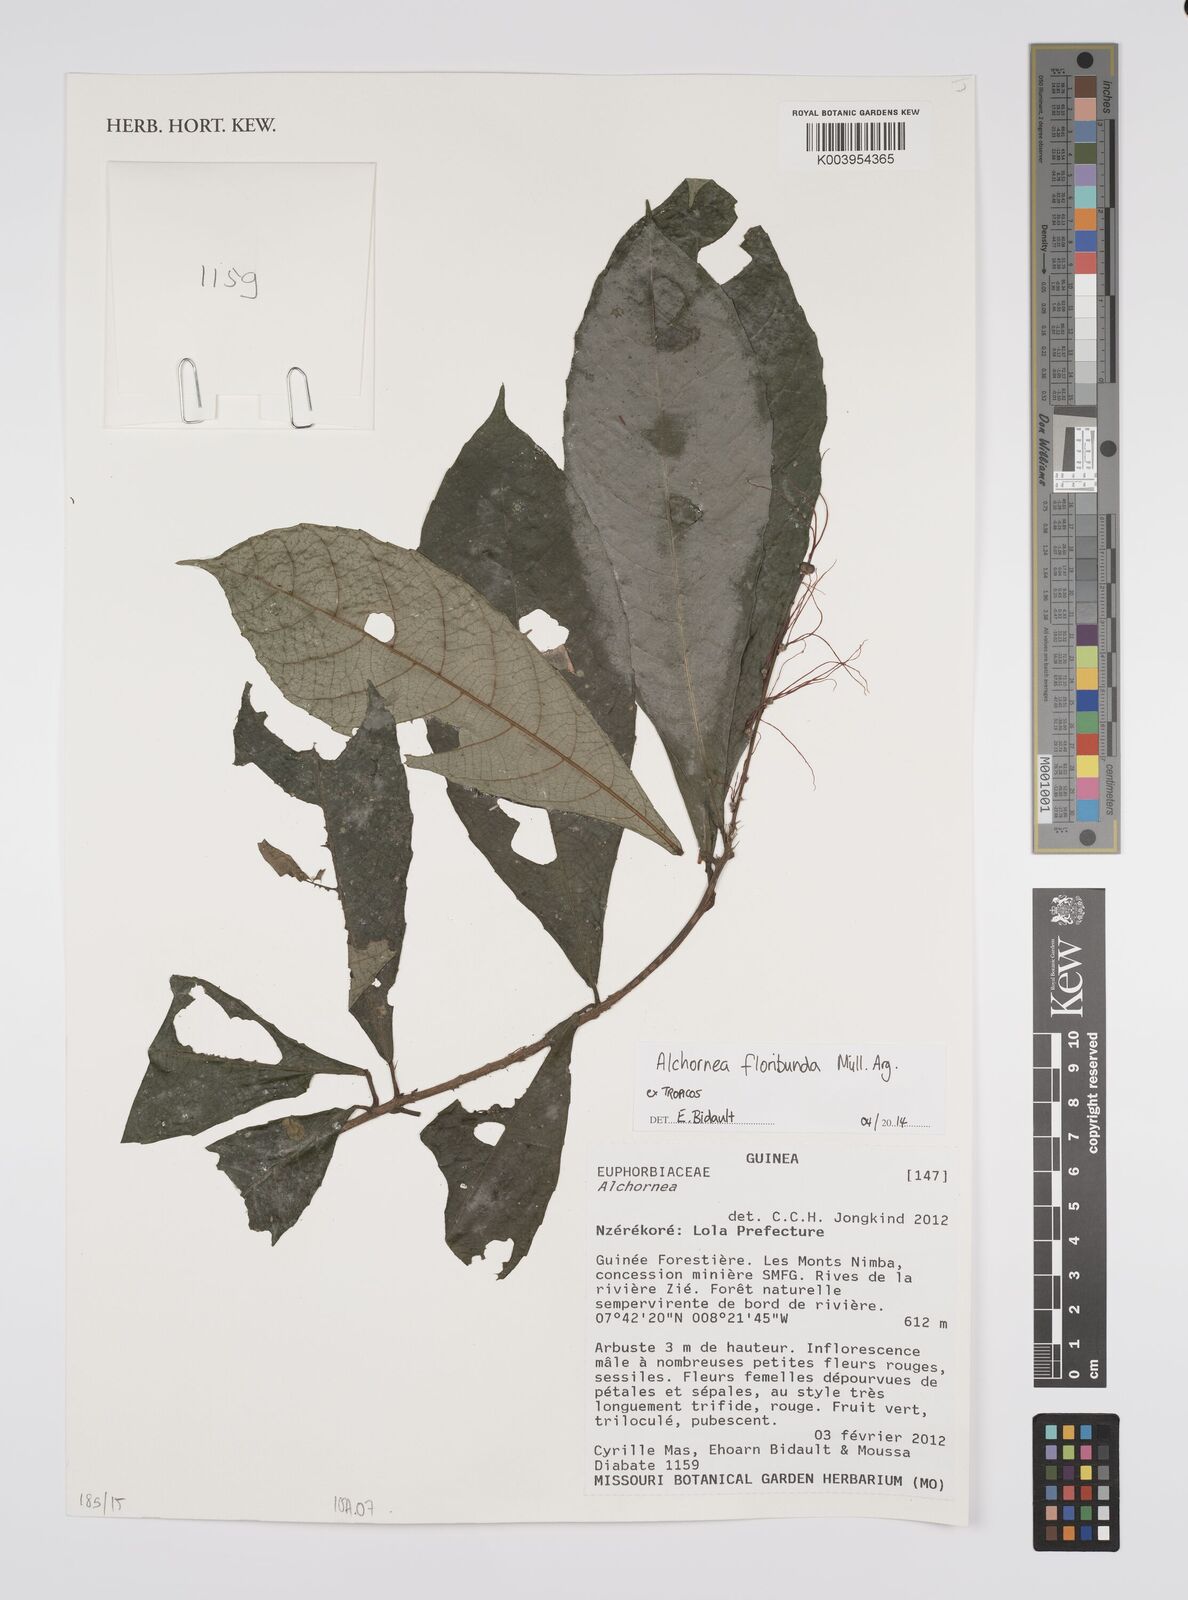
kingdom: Plantae
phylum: Tracheophyta
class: Magnoliopsida
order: Malpighiales
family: Euphorbiaceae
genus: Alchornea
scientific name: Alchornea floribunda
